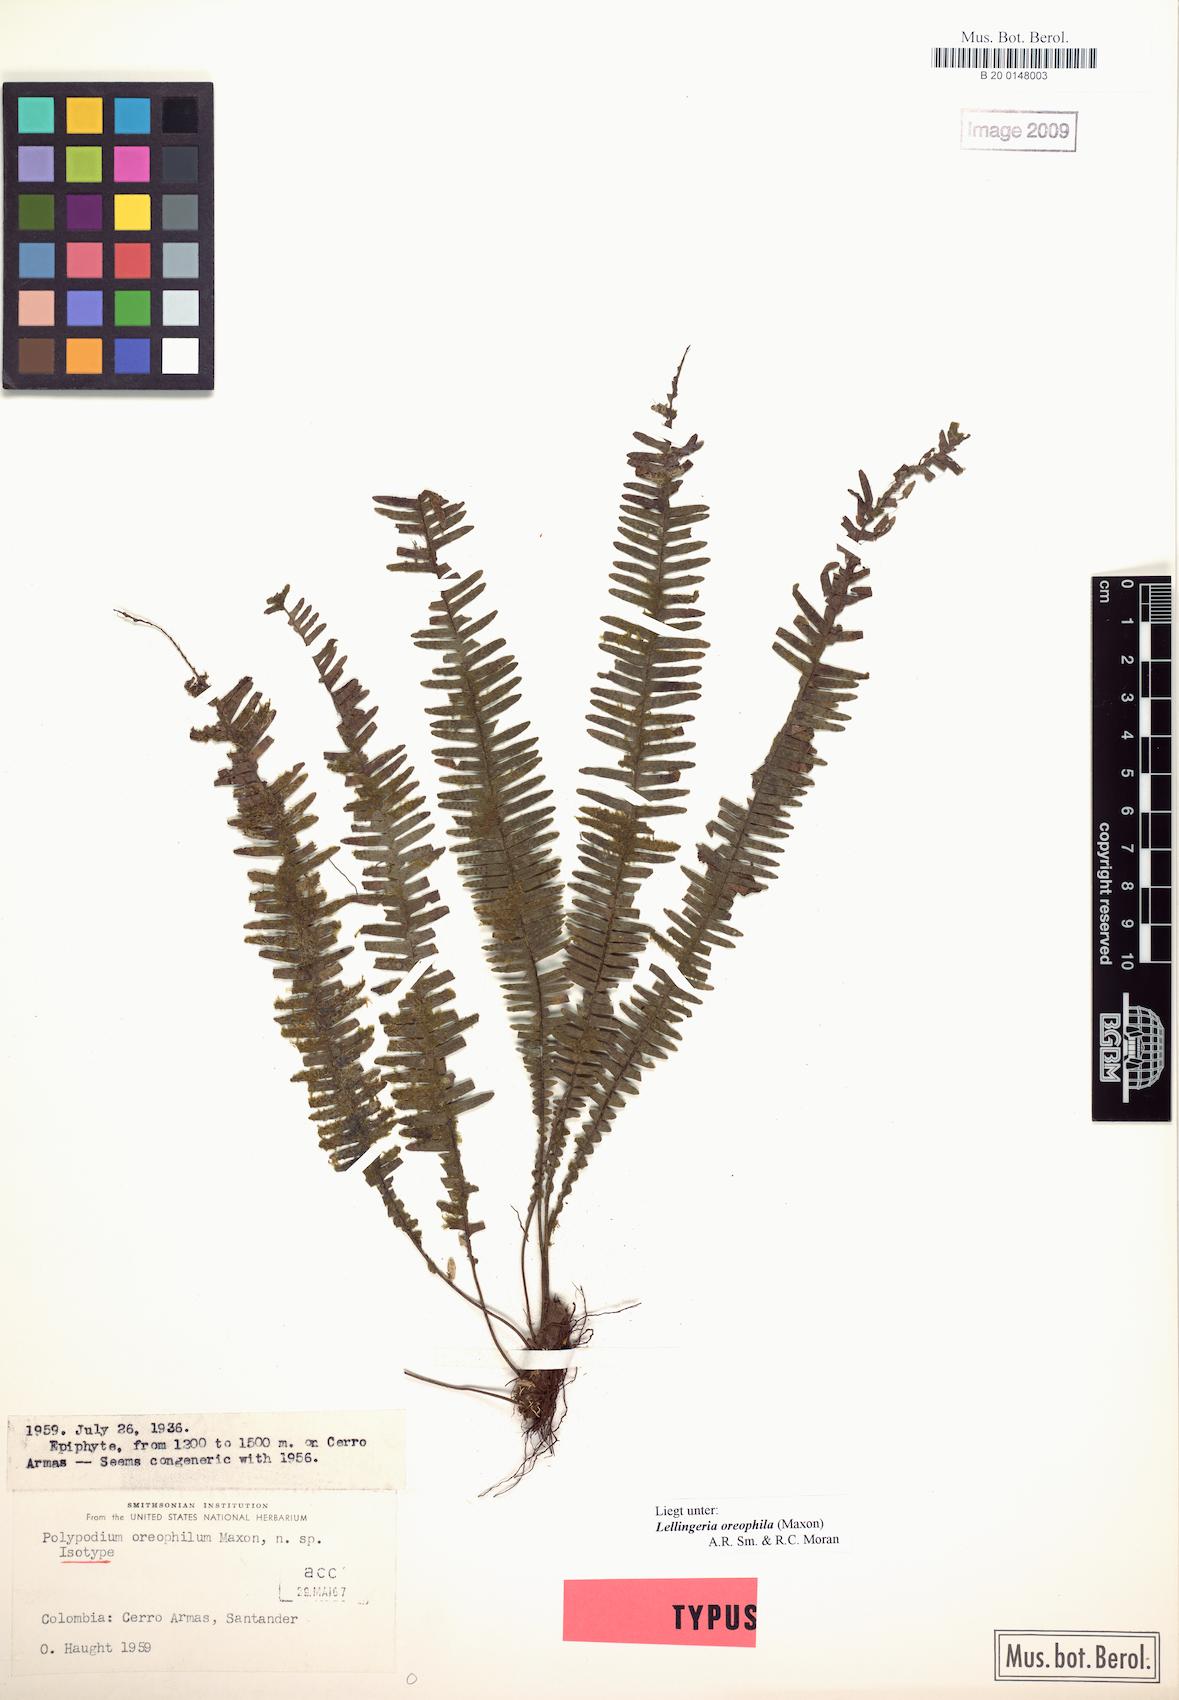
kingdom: Plantae
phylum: Tracheophyta
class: Polypodiopsida
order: Polypodiales
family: Polypodiaceae
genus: Lellingeria
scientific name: Lellingeria oreophila
